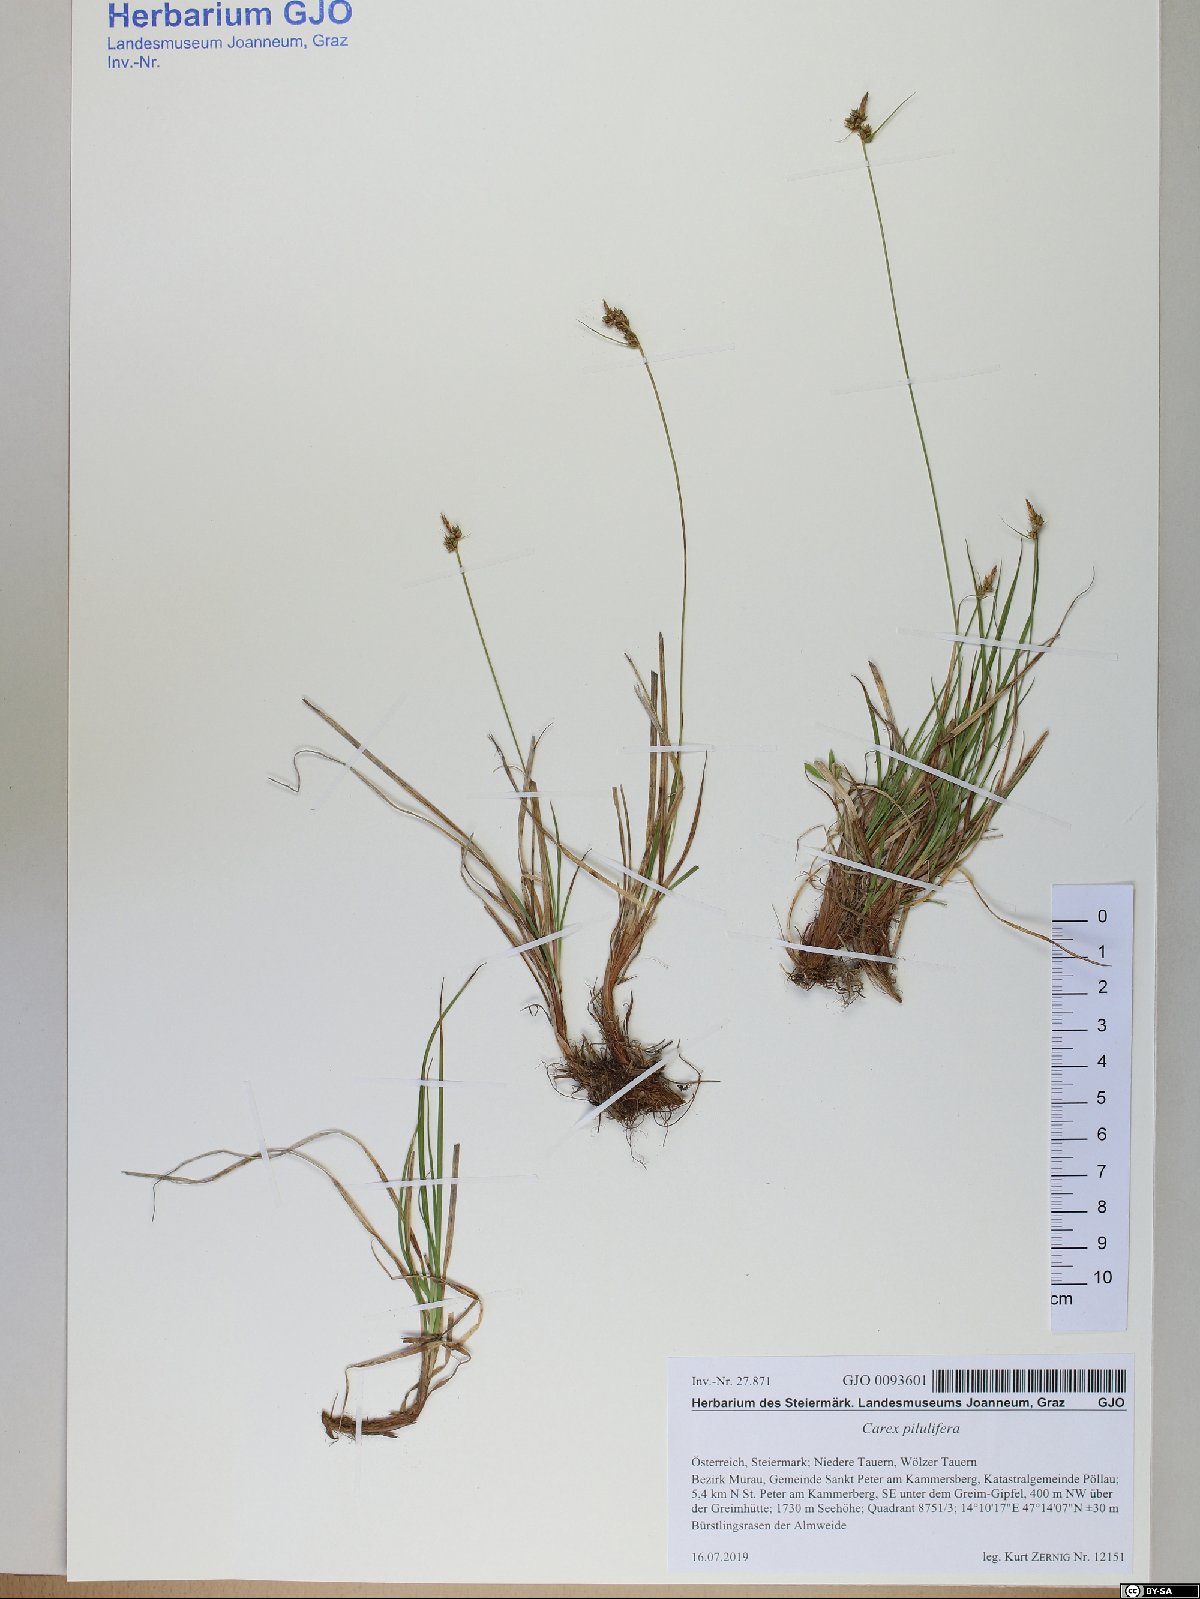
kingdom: Plantae
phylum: Tracheophyta
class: Liliopsida
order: Poales
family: Cyperaceae
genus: Carex
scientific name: Carex pilulifera
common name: Pill sedge
